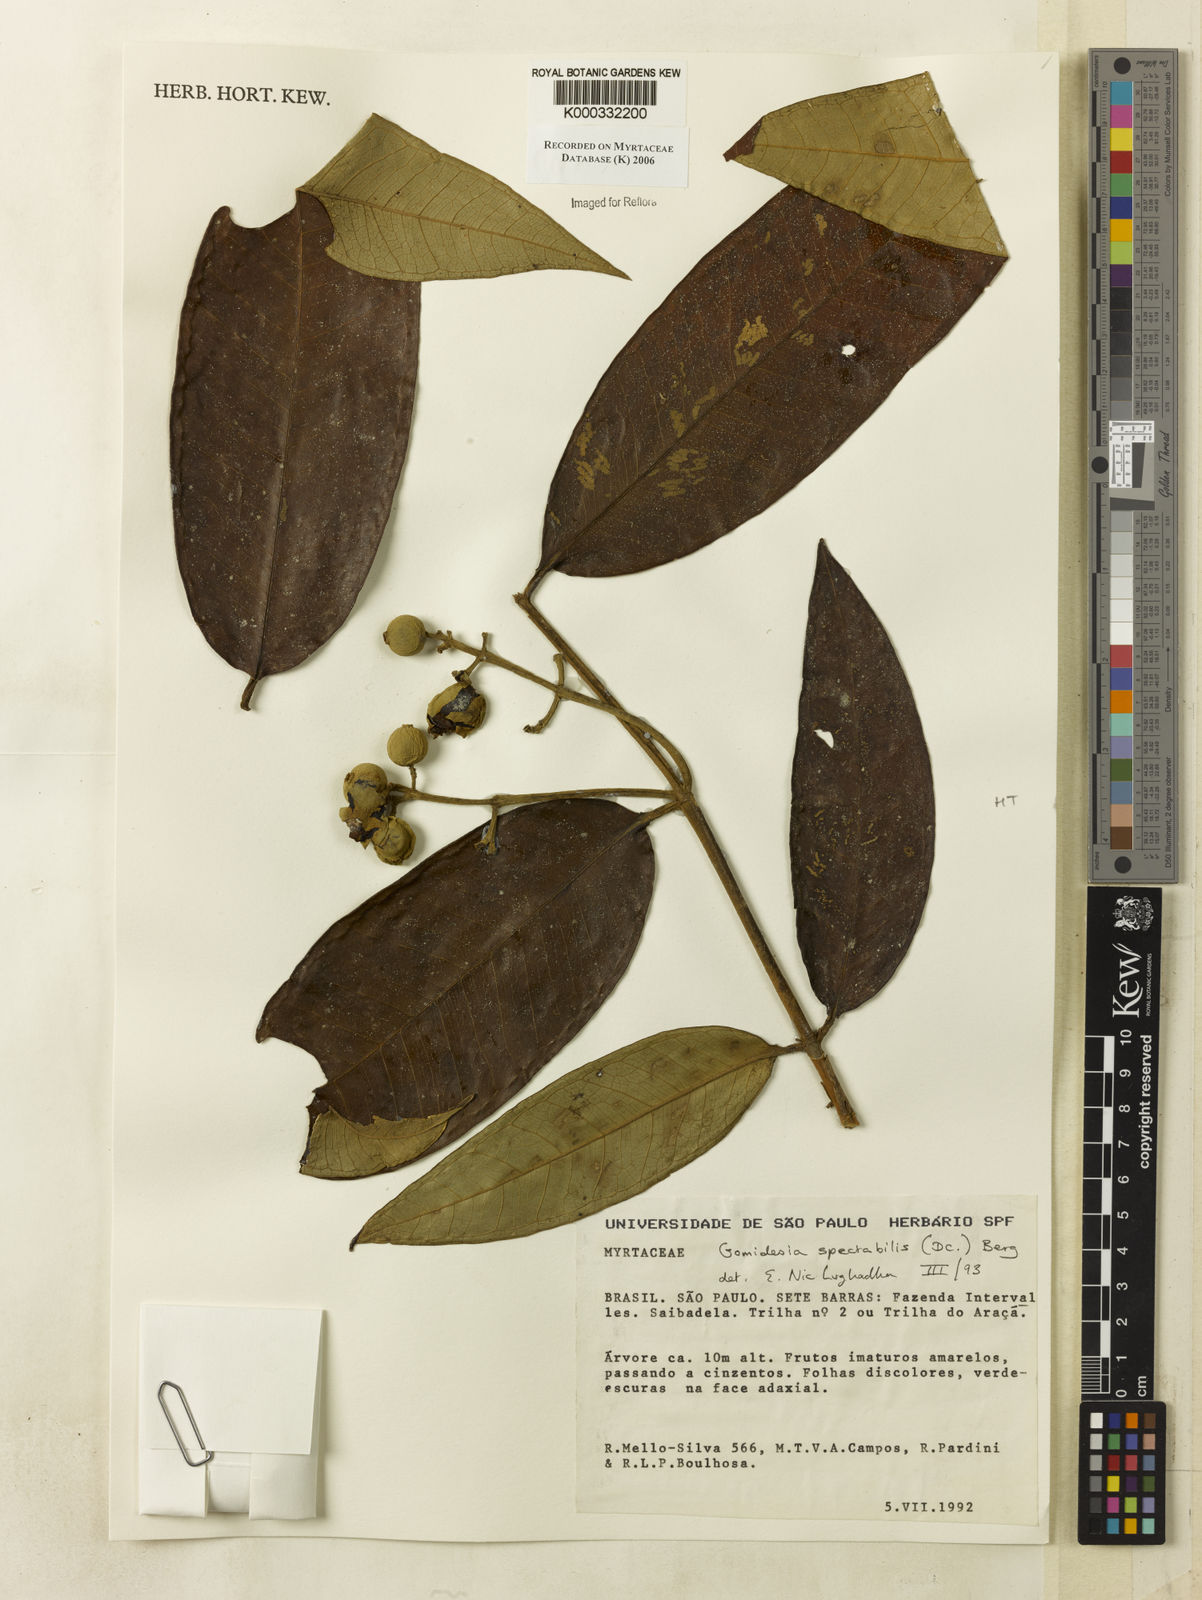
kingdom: Plantae
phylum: Tracheophyta
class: Magnoliopsida
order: Myrtales
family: Myrtaceae
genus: Myrcia
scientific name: Myrcia spectabilis
